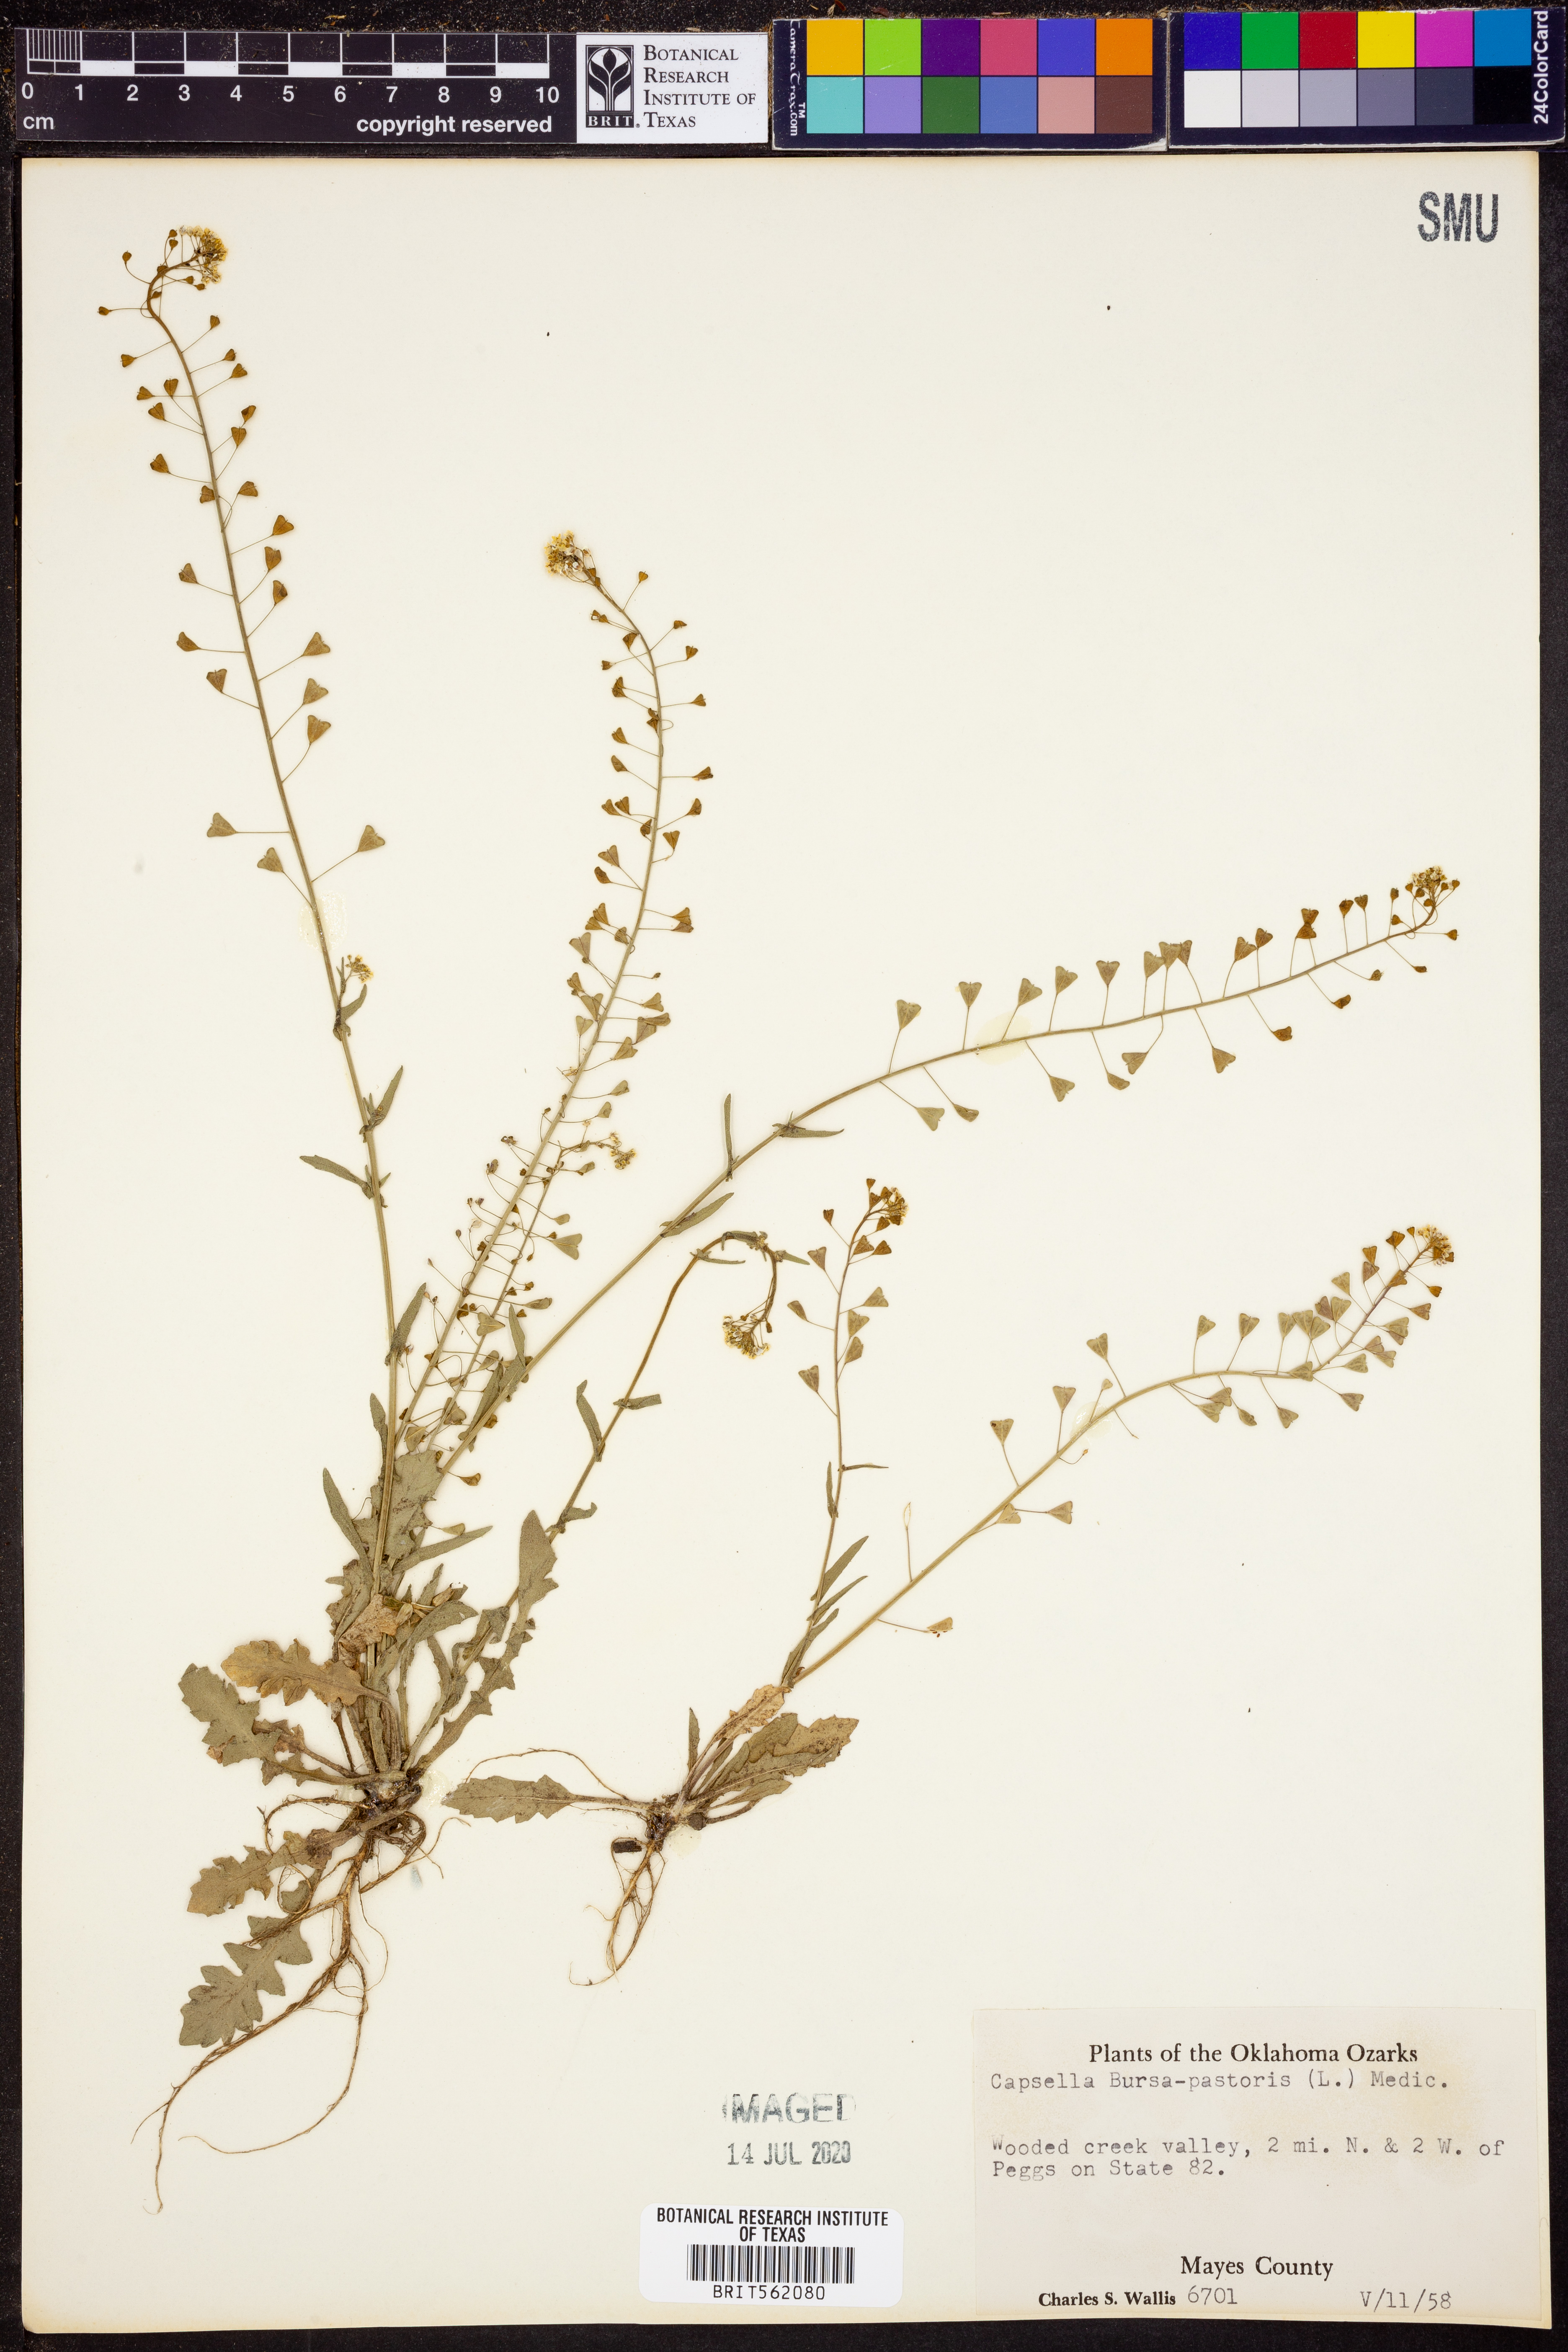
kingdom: Plantae
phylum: Tracheophyta
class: Magnoliopsida
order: Brassicales
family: Brassicaceae
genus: Capsella
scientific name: Capsella bursa-pastoris
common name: Shepherd's purse
